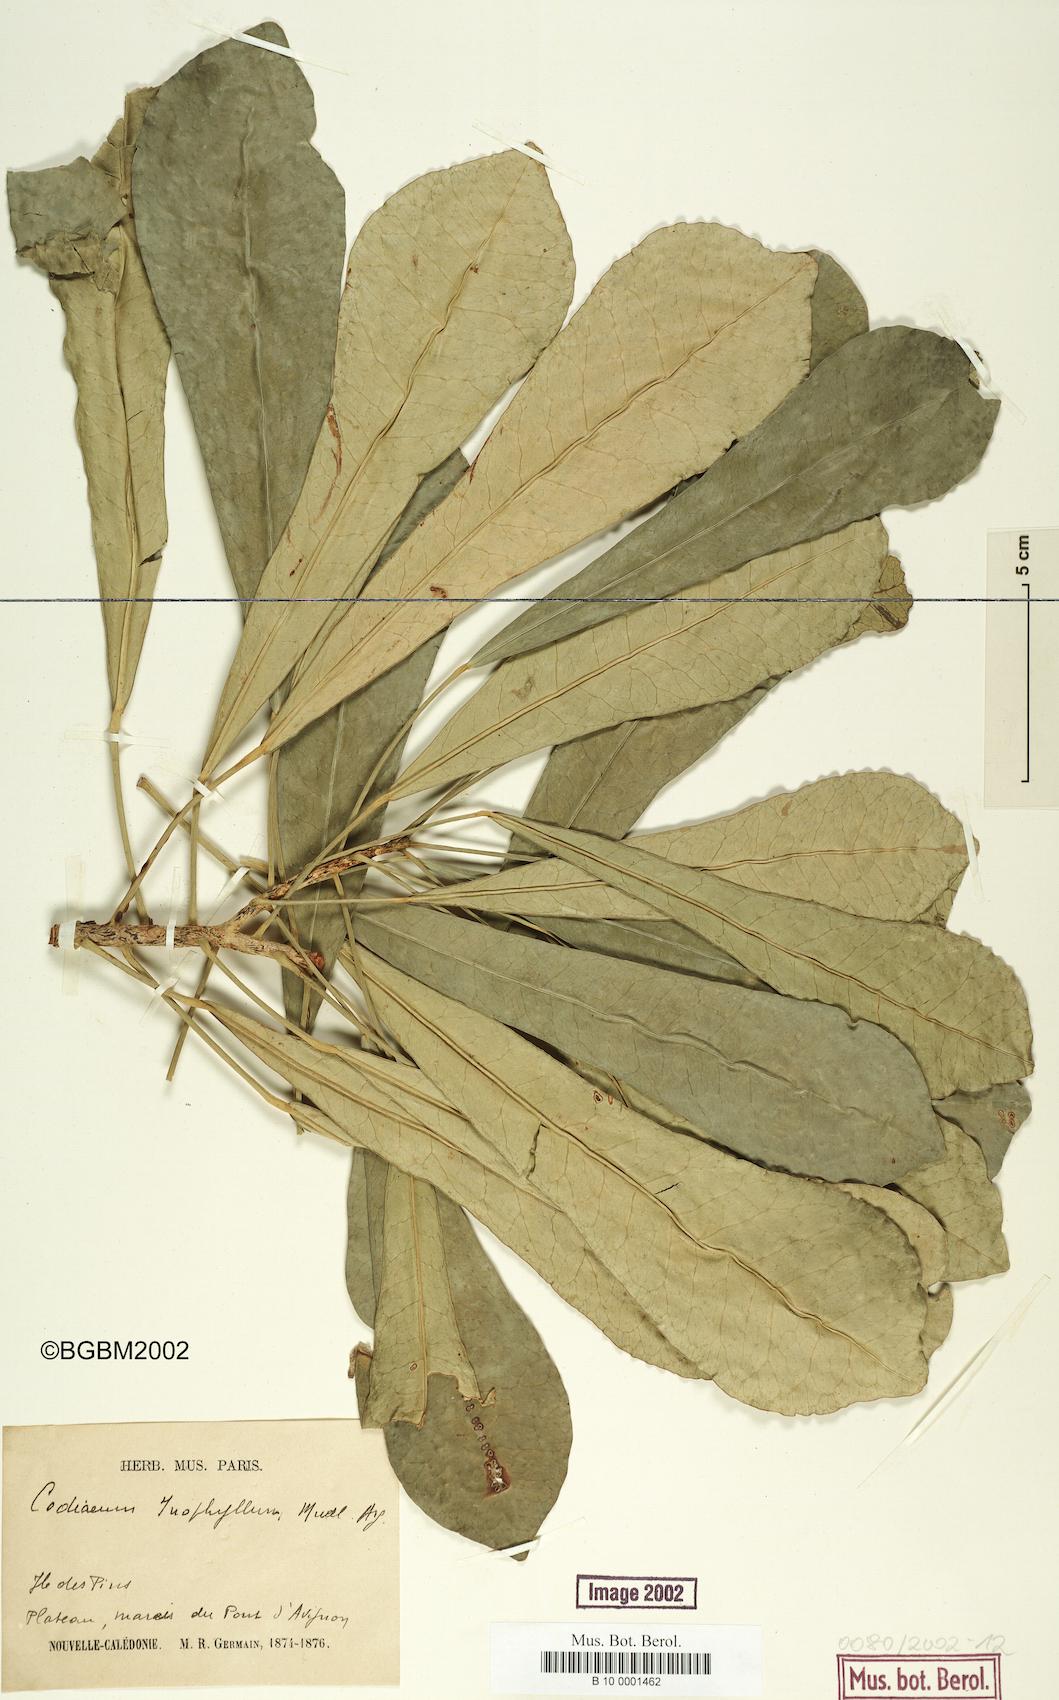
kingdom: Plantae
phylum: Tracheophyta
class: Magnoliopsida
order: Malpighiales
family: Euphorbiaceae
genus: Baloghia
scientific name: Baloghia inophylla
